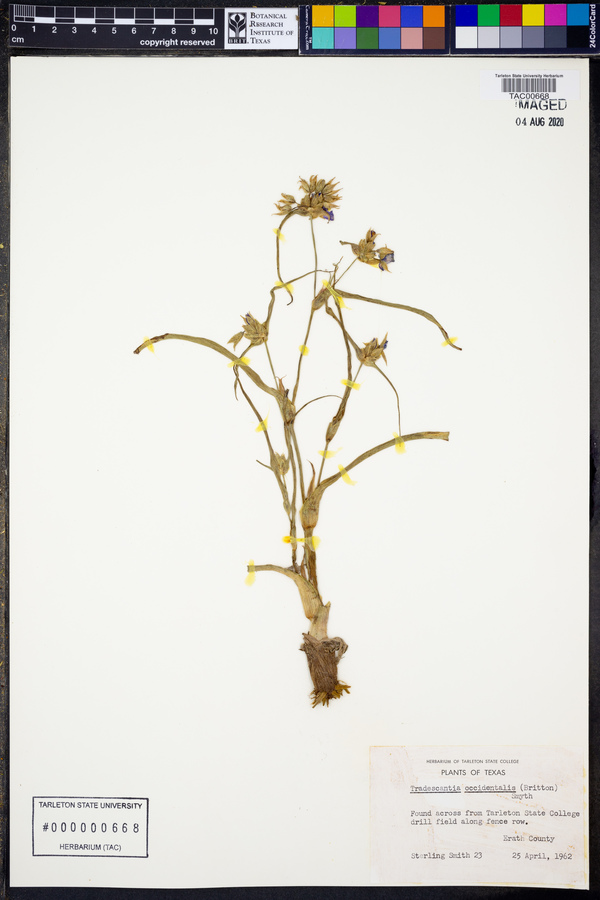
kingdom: Plantae
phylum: Tracheophyta
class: Liliopsida
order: Commelinales
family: Commelinaceae
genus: Tradescantia
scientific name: Tradescantia occidentalis
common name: Prairie spiderwort
